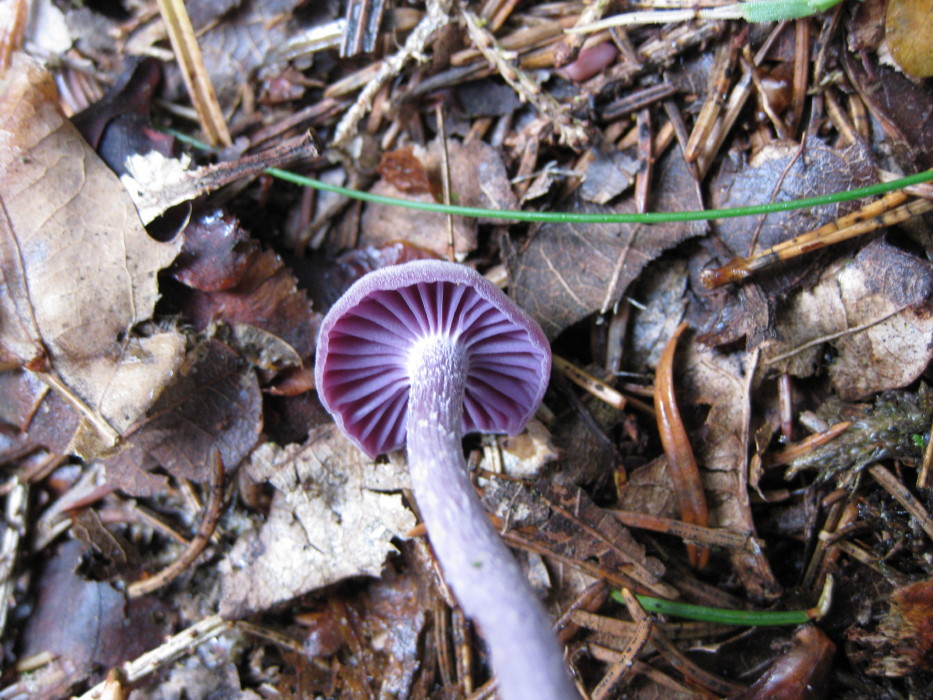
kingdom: Fungi
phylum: Basidiomycota
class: Agaricomycetes
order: Agaricales
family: Hydnangiaceae
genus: Laccaria
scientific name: Laccaria amethystina
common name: violet ametysthat
